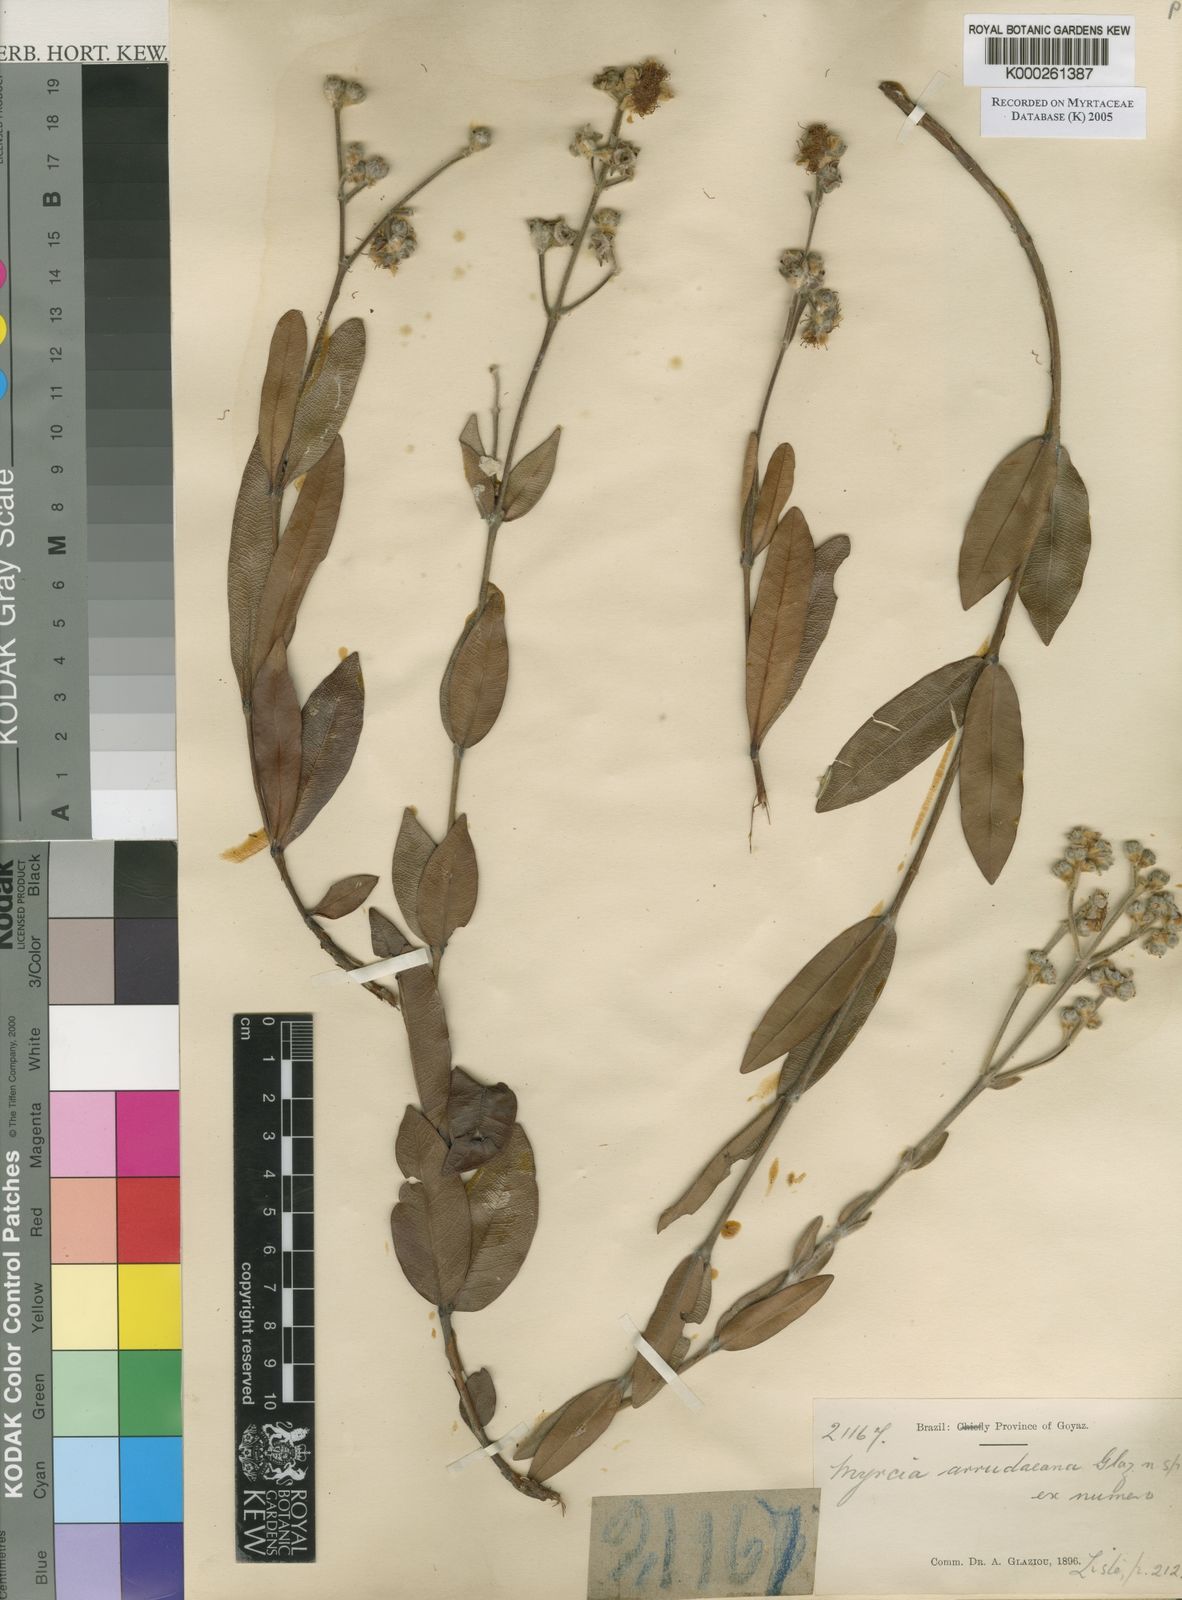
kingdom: Plantae
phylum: Tracheophyta
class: Magnoliopsida
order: Myrtales
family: Myrtaceae
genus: Myrcia
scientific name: Myrcia
